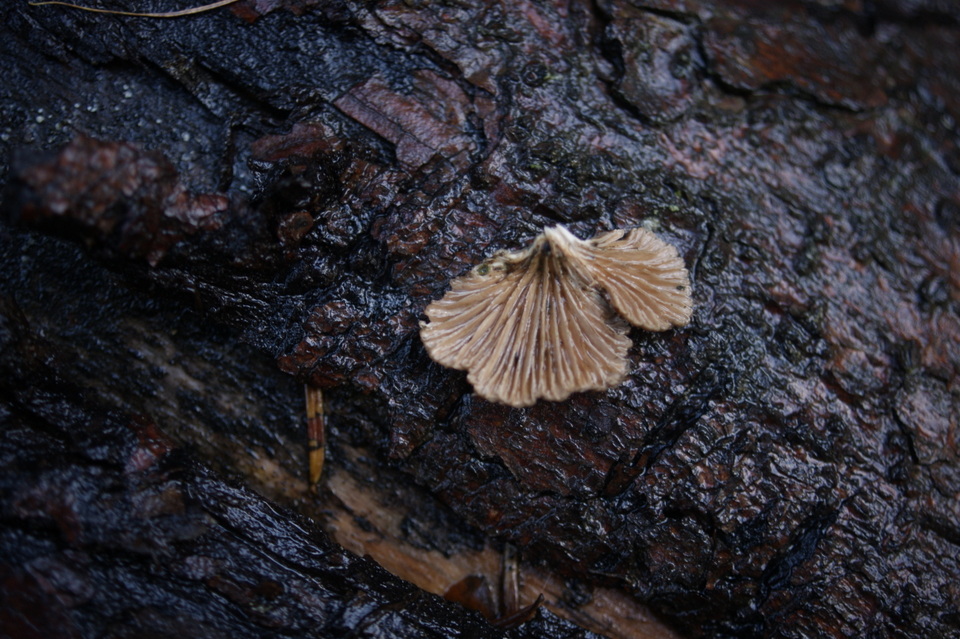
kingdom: Fungi
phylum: Basidiomycota
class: Agaricomycetes
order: Agaricales
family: Schizophyllaceae
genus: Schizophyllum
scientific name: Schizophyllum commune
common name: kløvblad
